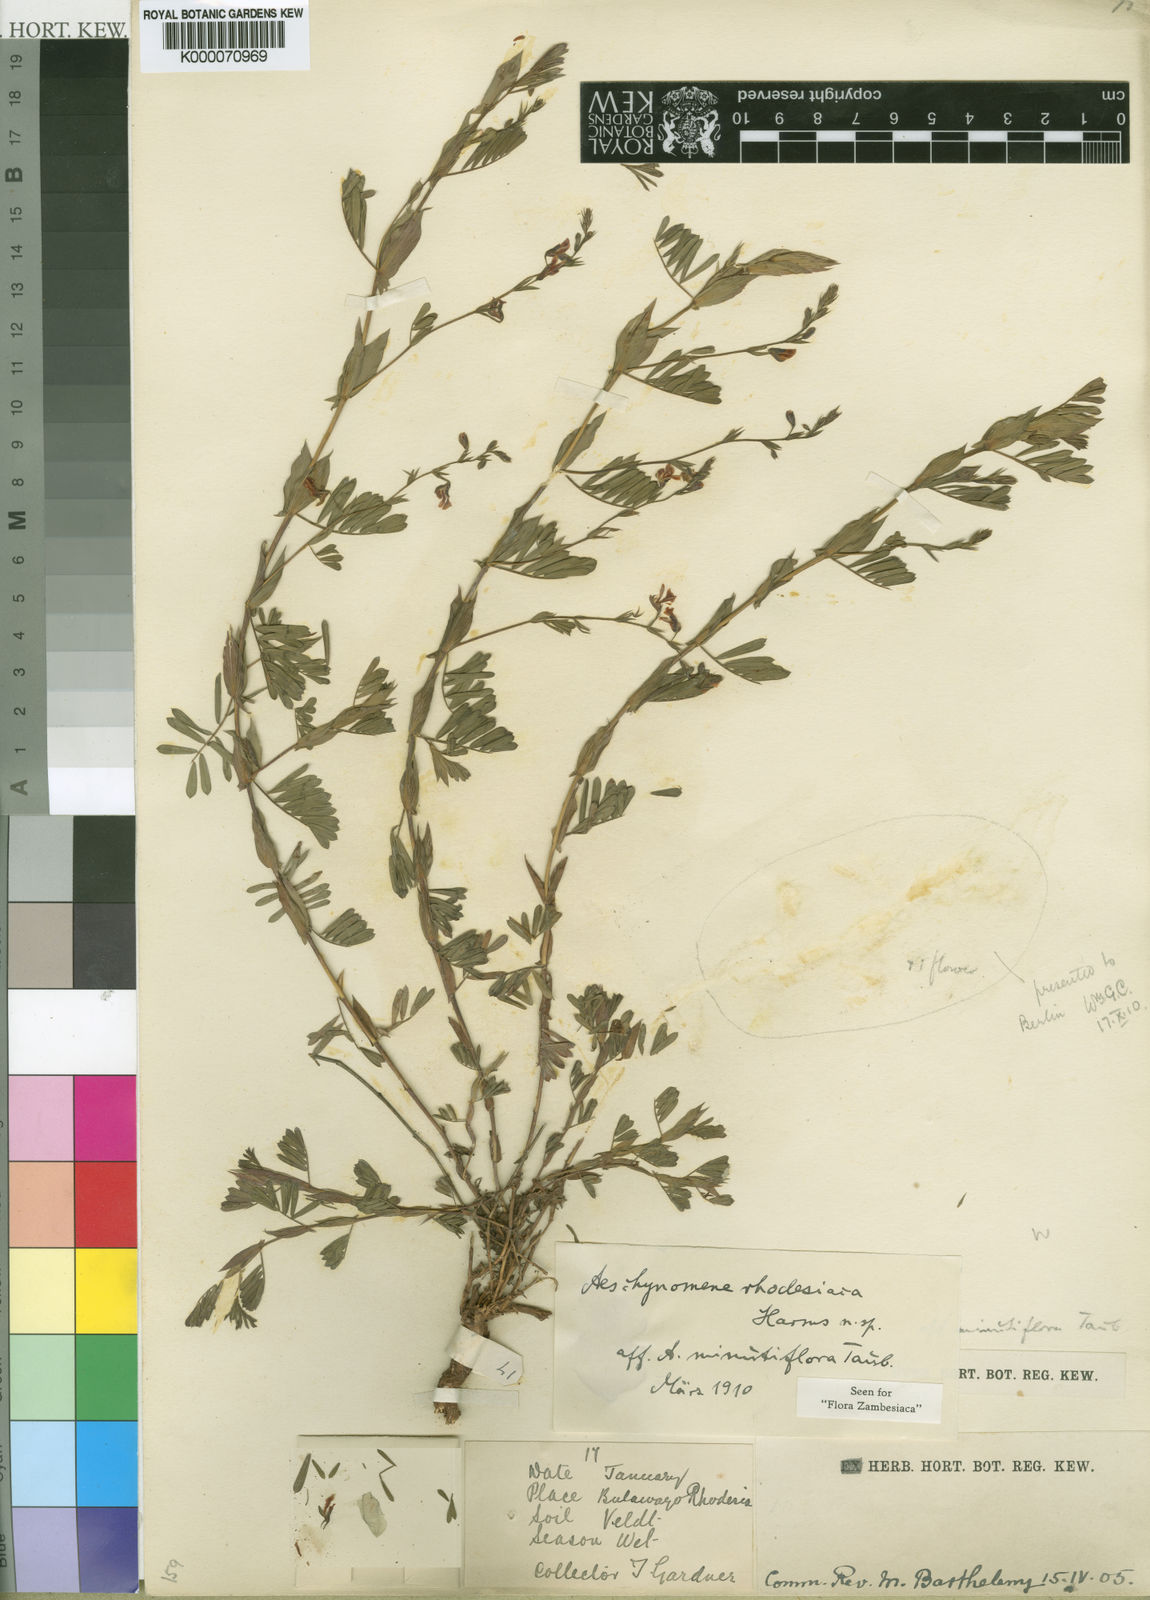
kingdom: Plantae
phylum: Tracheophyta
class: Magnoliopsida
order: Fabales
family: Fabaceae
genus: Aeschynomene
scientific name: Aeschynomene rhodesiaca
